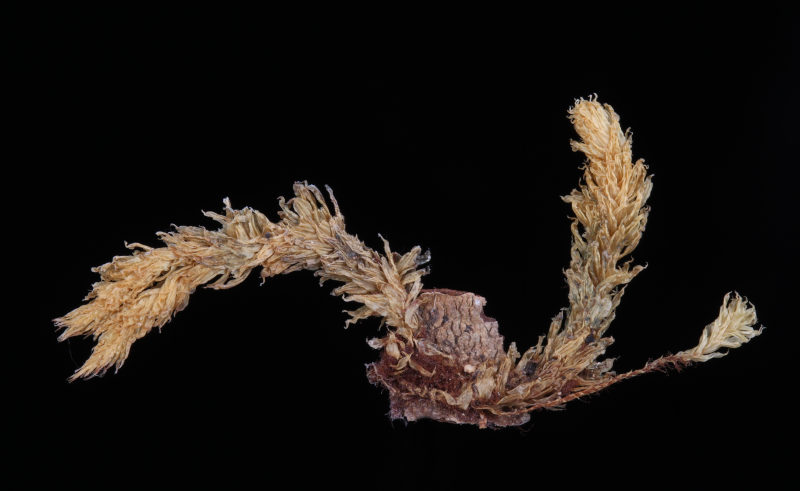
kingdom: Plantae
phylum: Bryophyta
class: Bryopsida
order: Ptychomniales
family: Ptychomniaceae
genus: Garovaglia
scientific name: Garovaglia plicata
